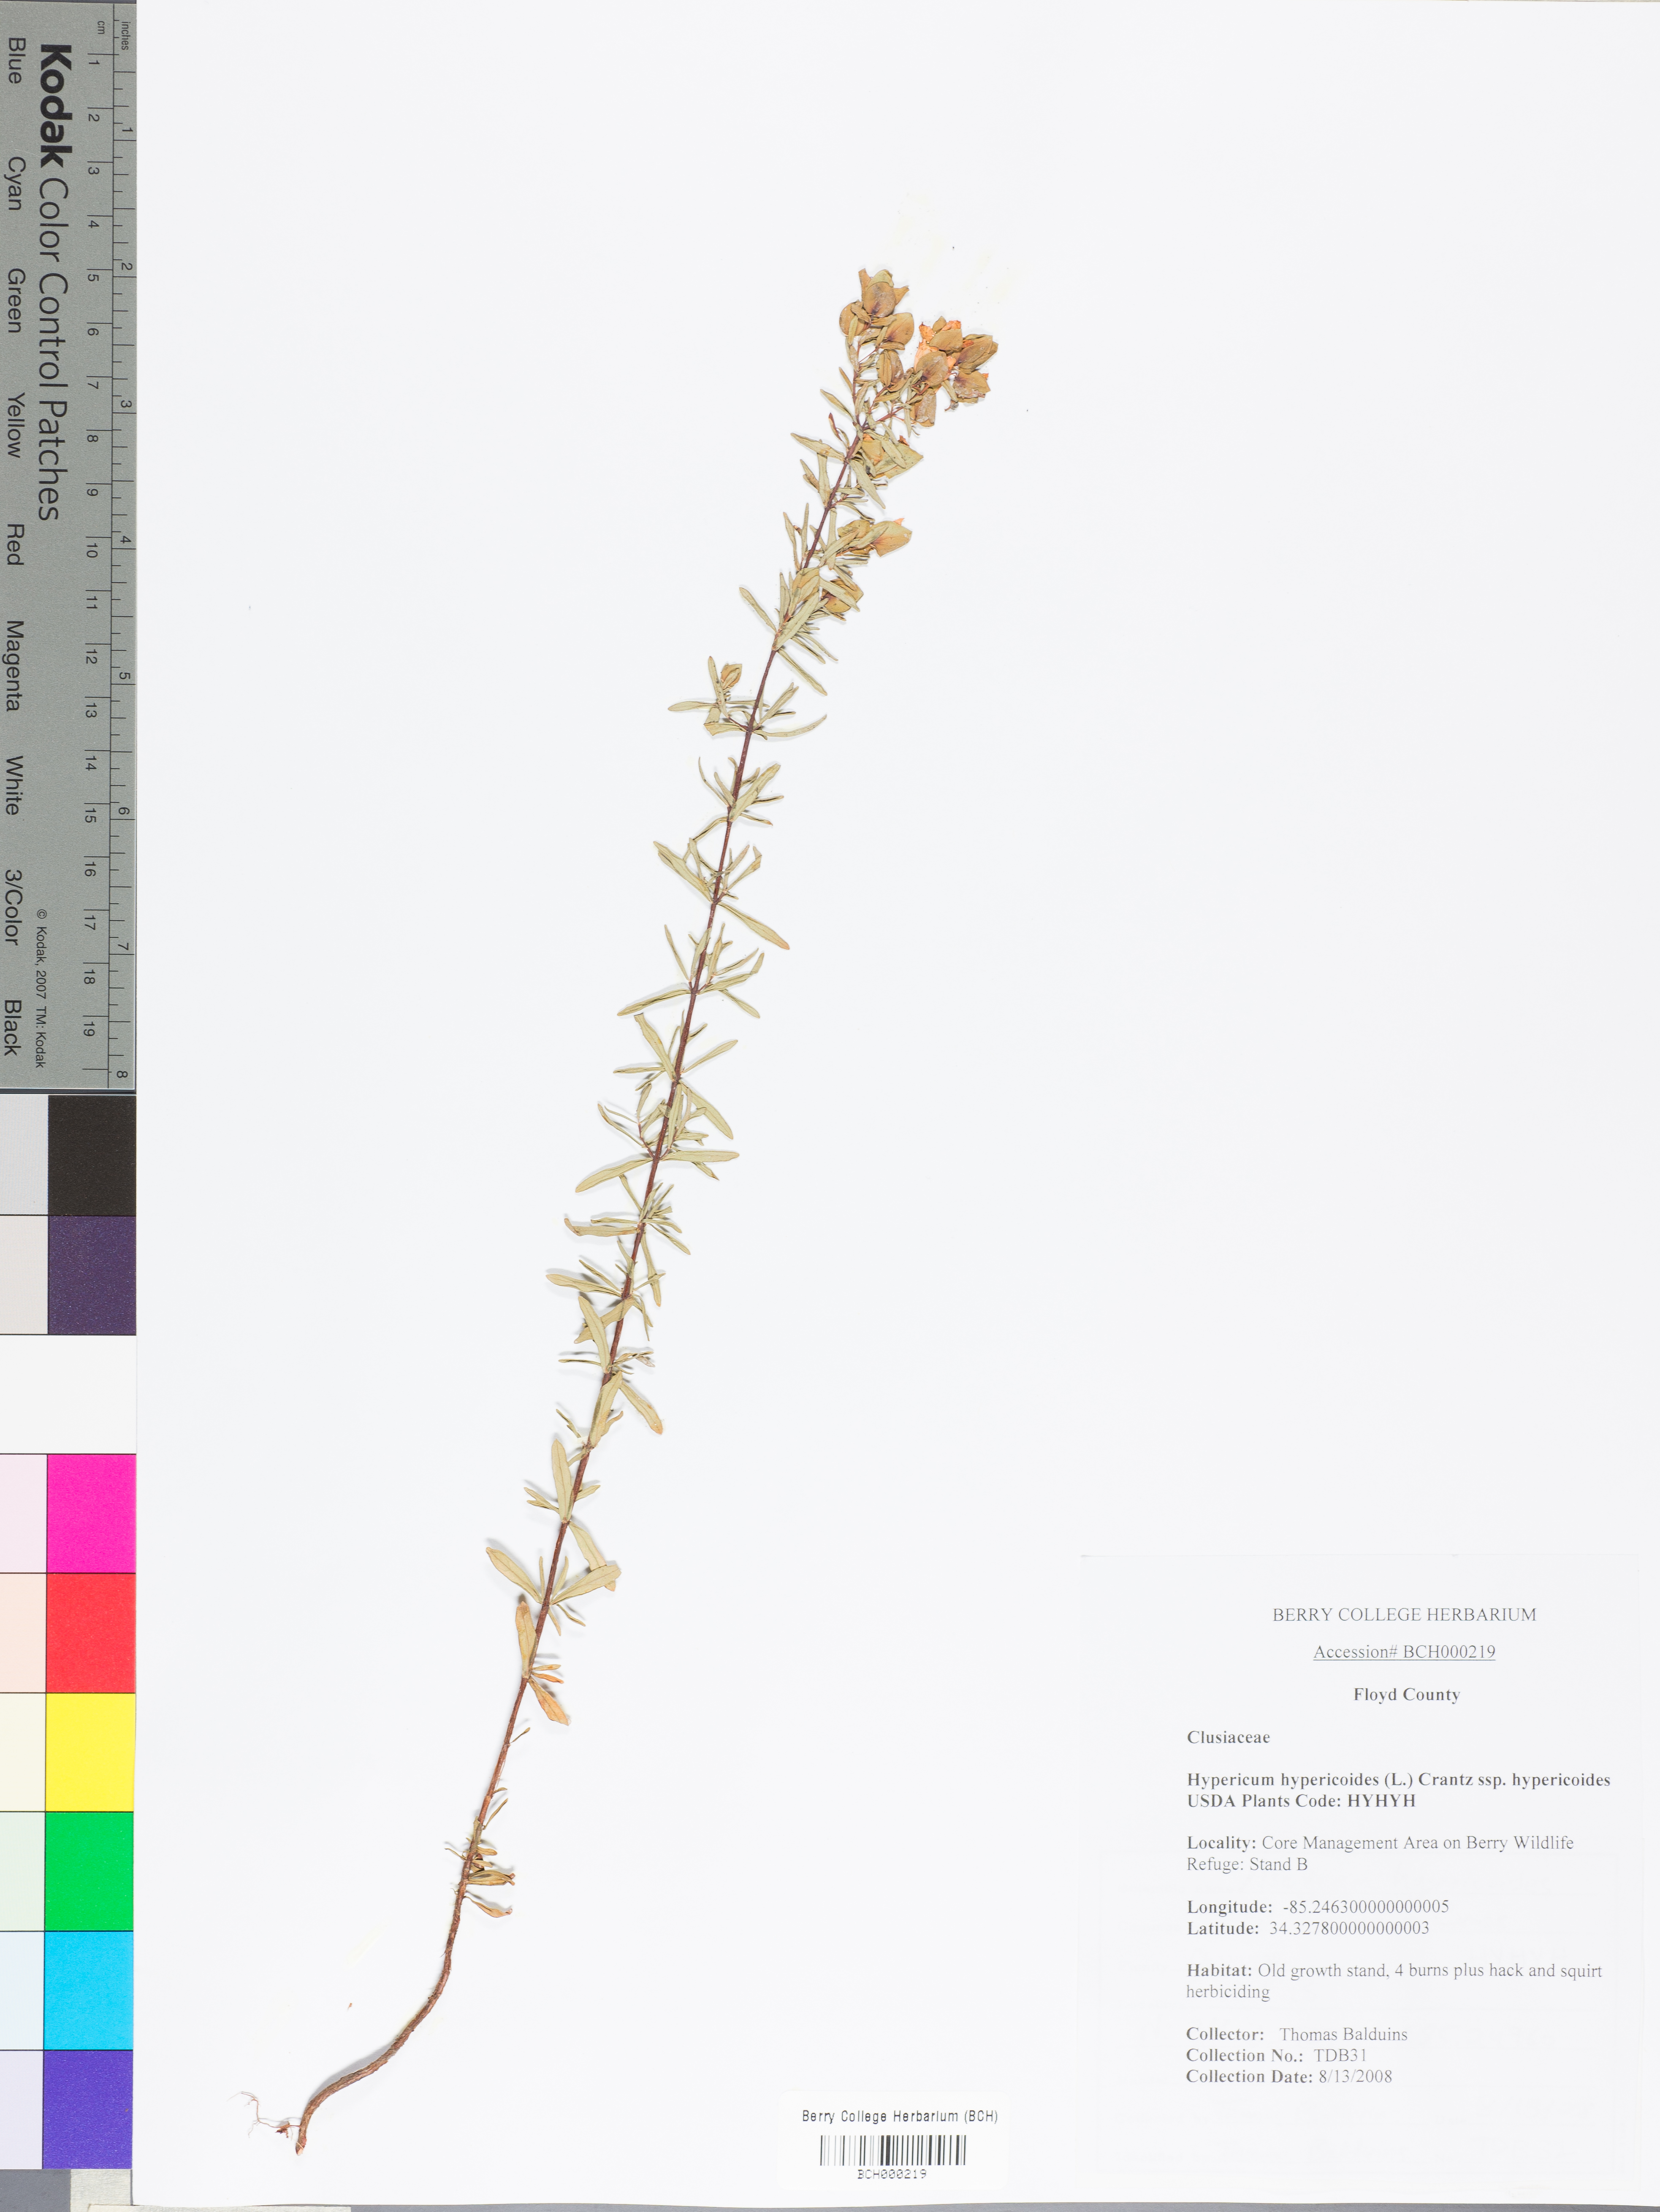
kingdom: Plantae
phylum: Tracheophyta
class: Magnoliopsida
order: Malpighiales
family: Hypericaceae
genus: Hypericum
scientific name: Hypericum hypericoides
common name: St. andrew's cross
